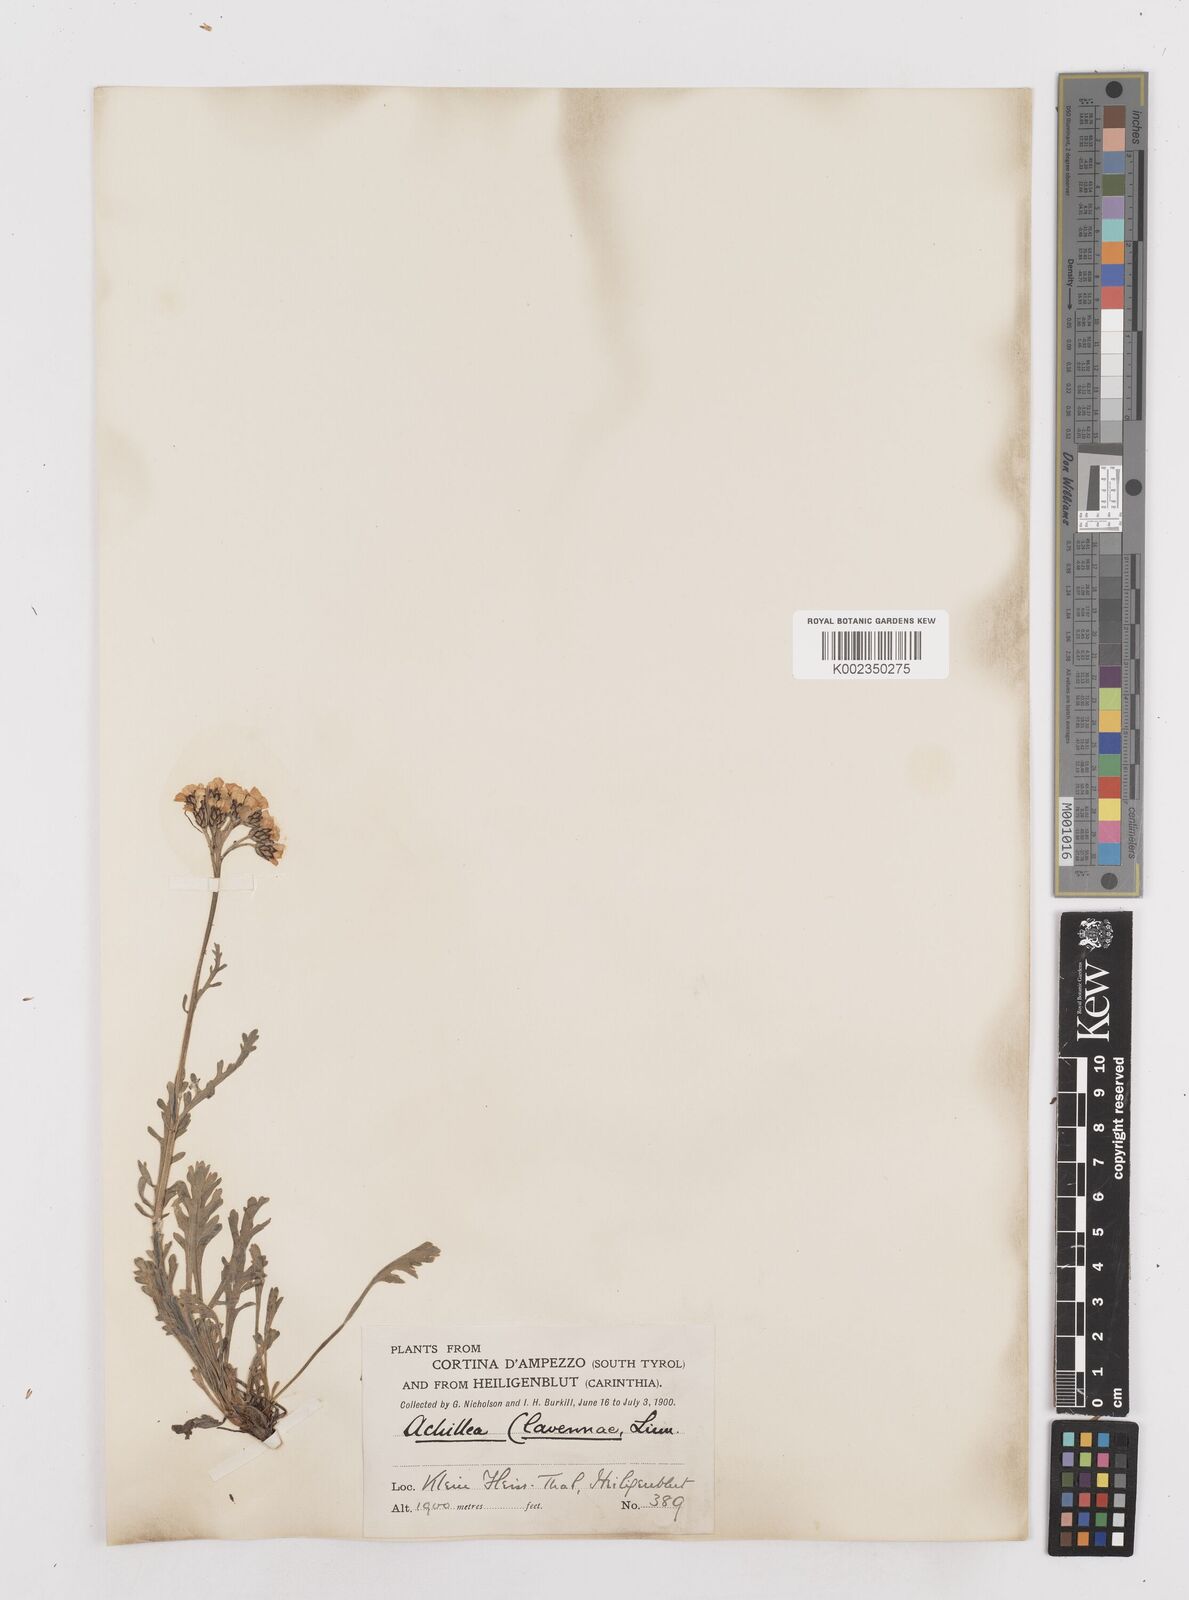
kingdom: Plantae
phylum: Tracheophyta
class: Magnoliopsida
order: Asterales
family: Asteraceae
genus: Achillea
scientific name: Achillea clavennae
